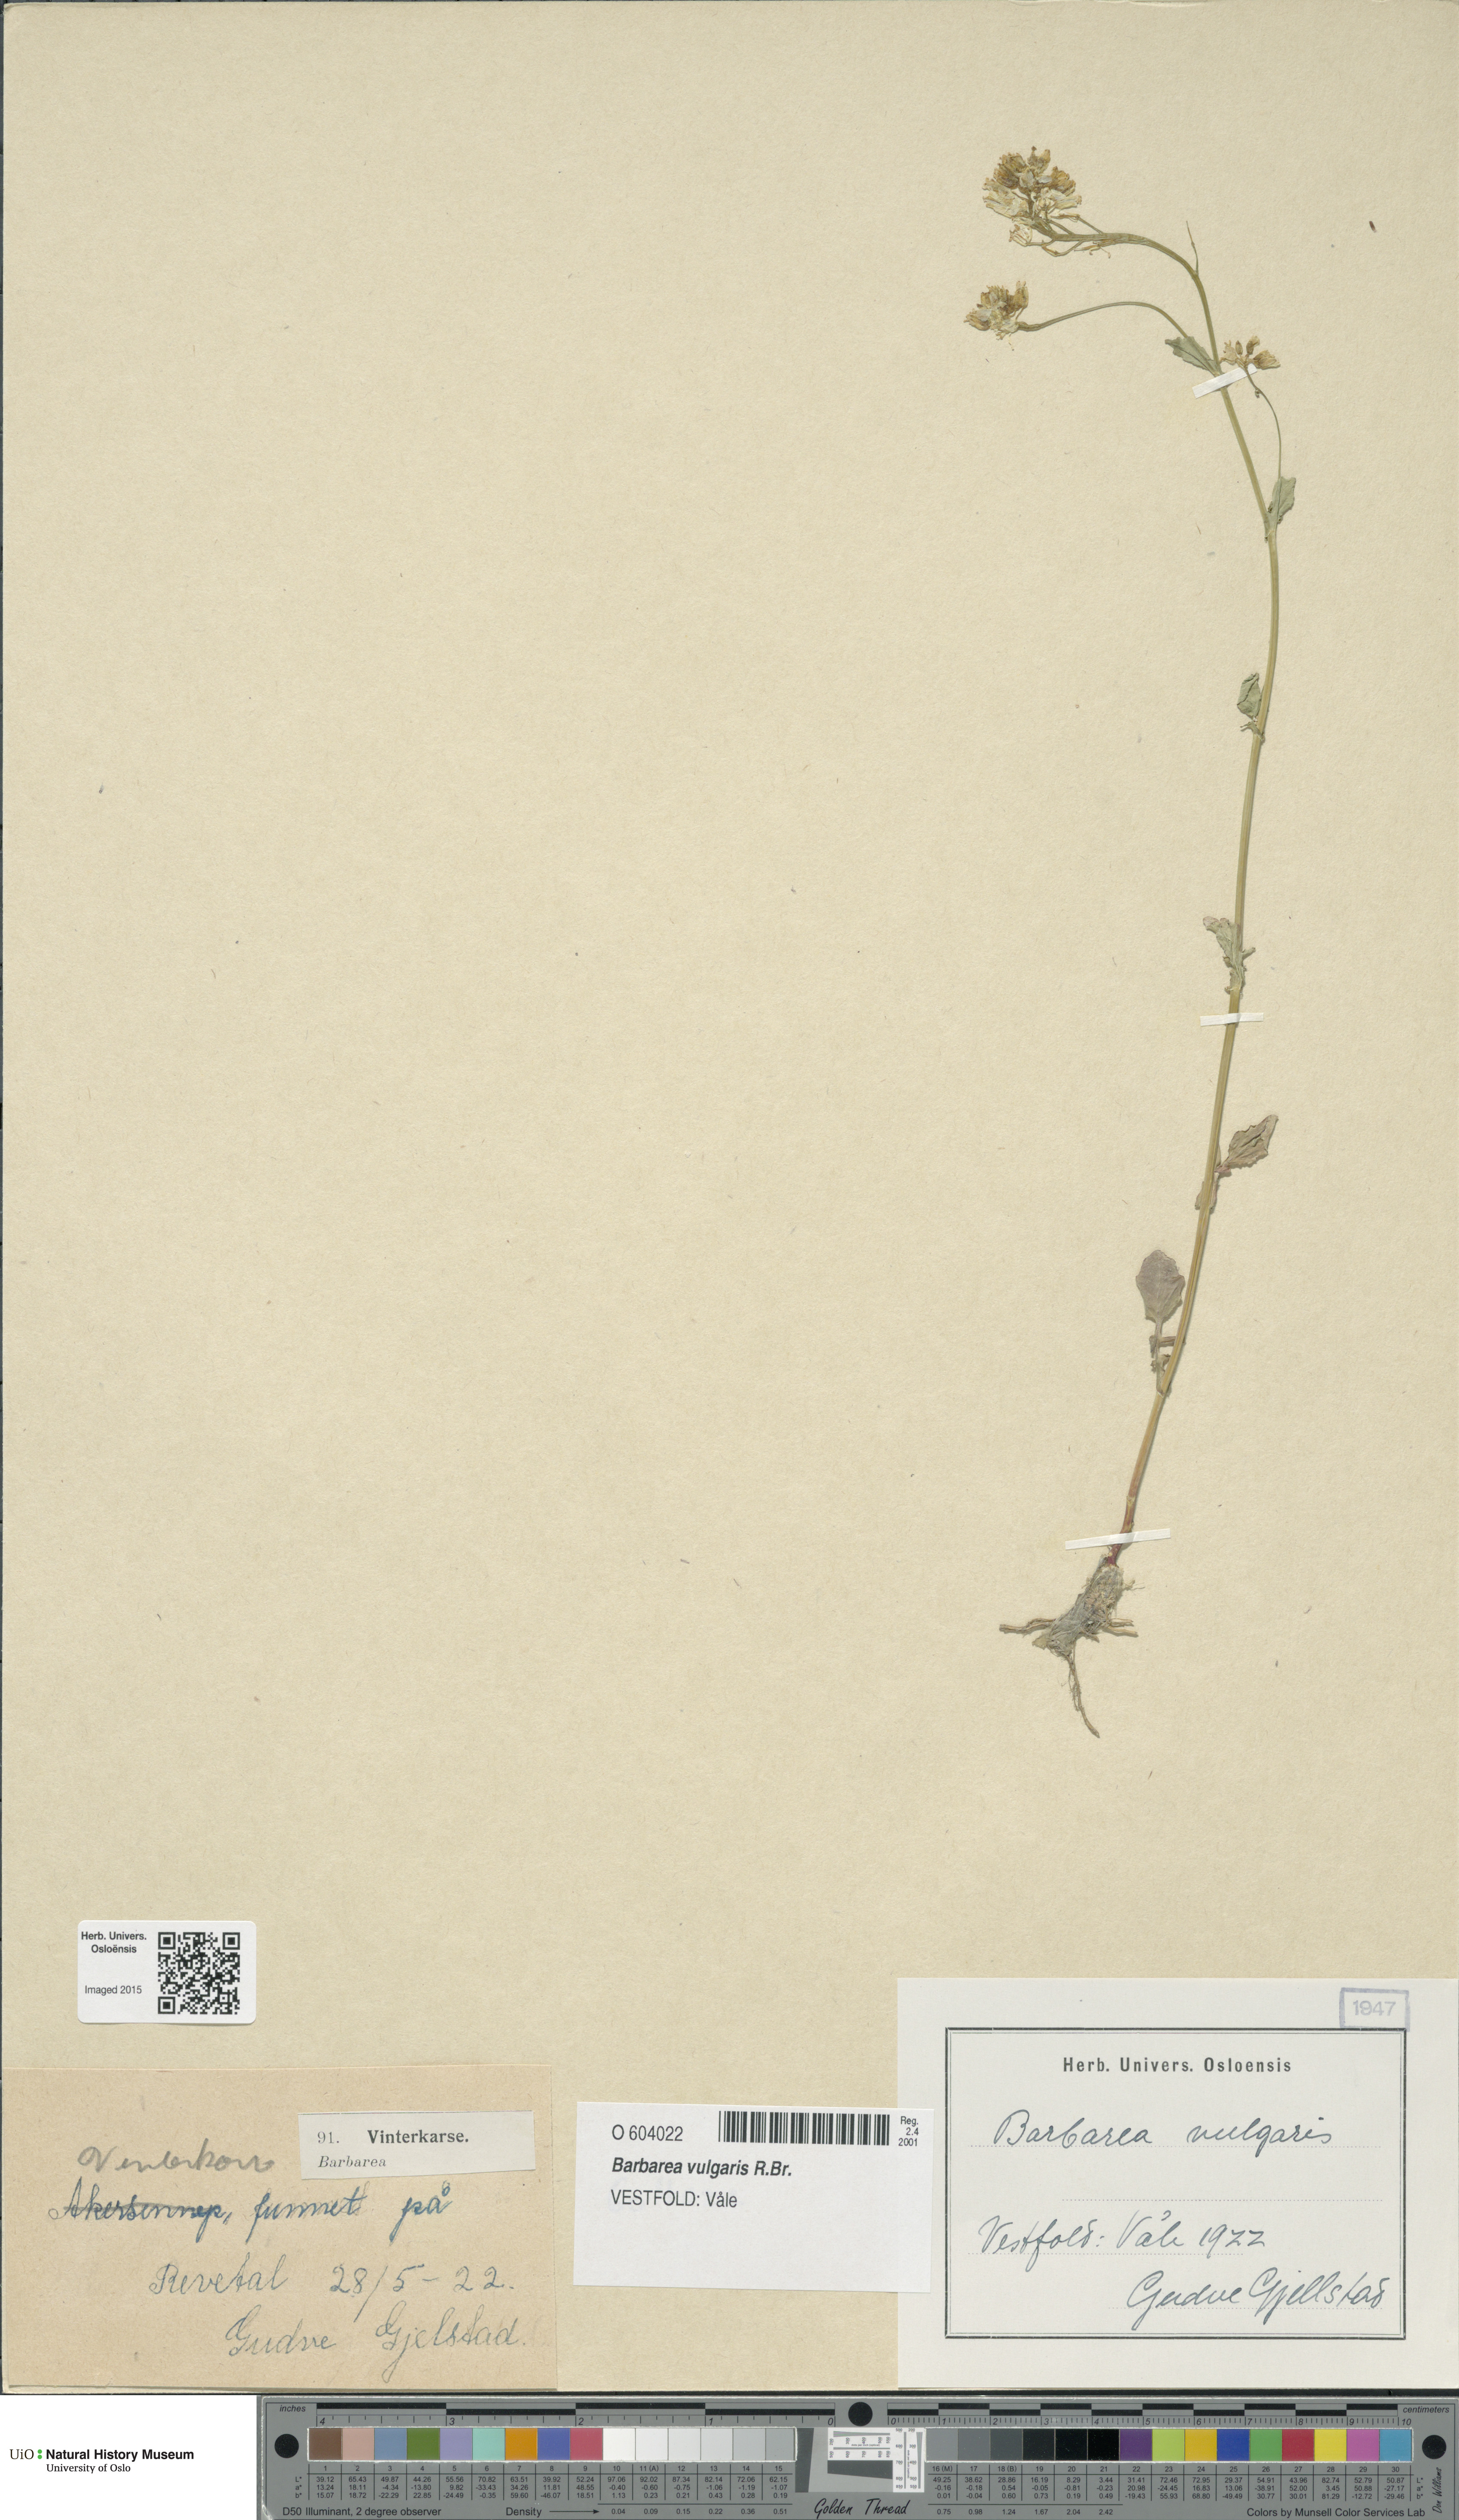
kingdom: Plantae
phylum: Tracheophyta
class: Magnoliopsida
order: Brassicales
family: Brassicaceae
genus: Barbarea
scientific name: Barbarea vulgaris
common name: Cressy-greens
